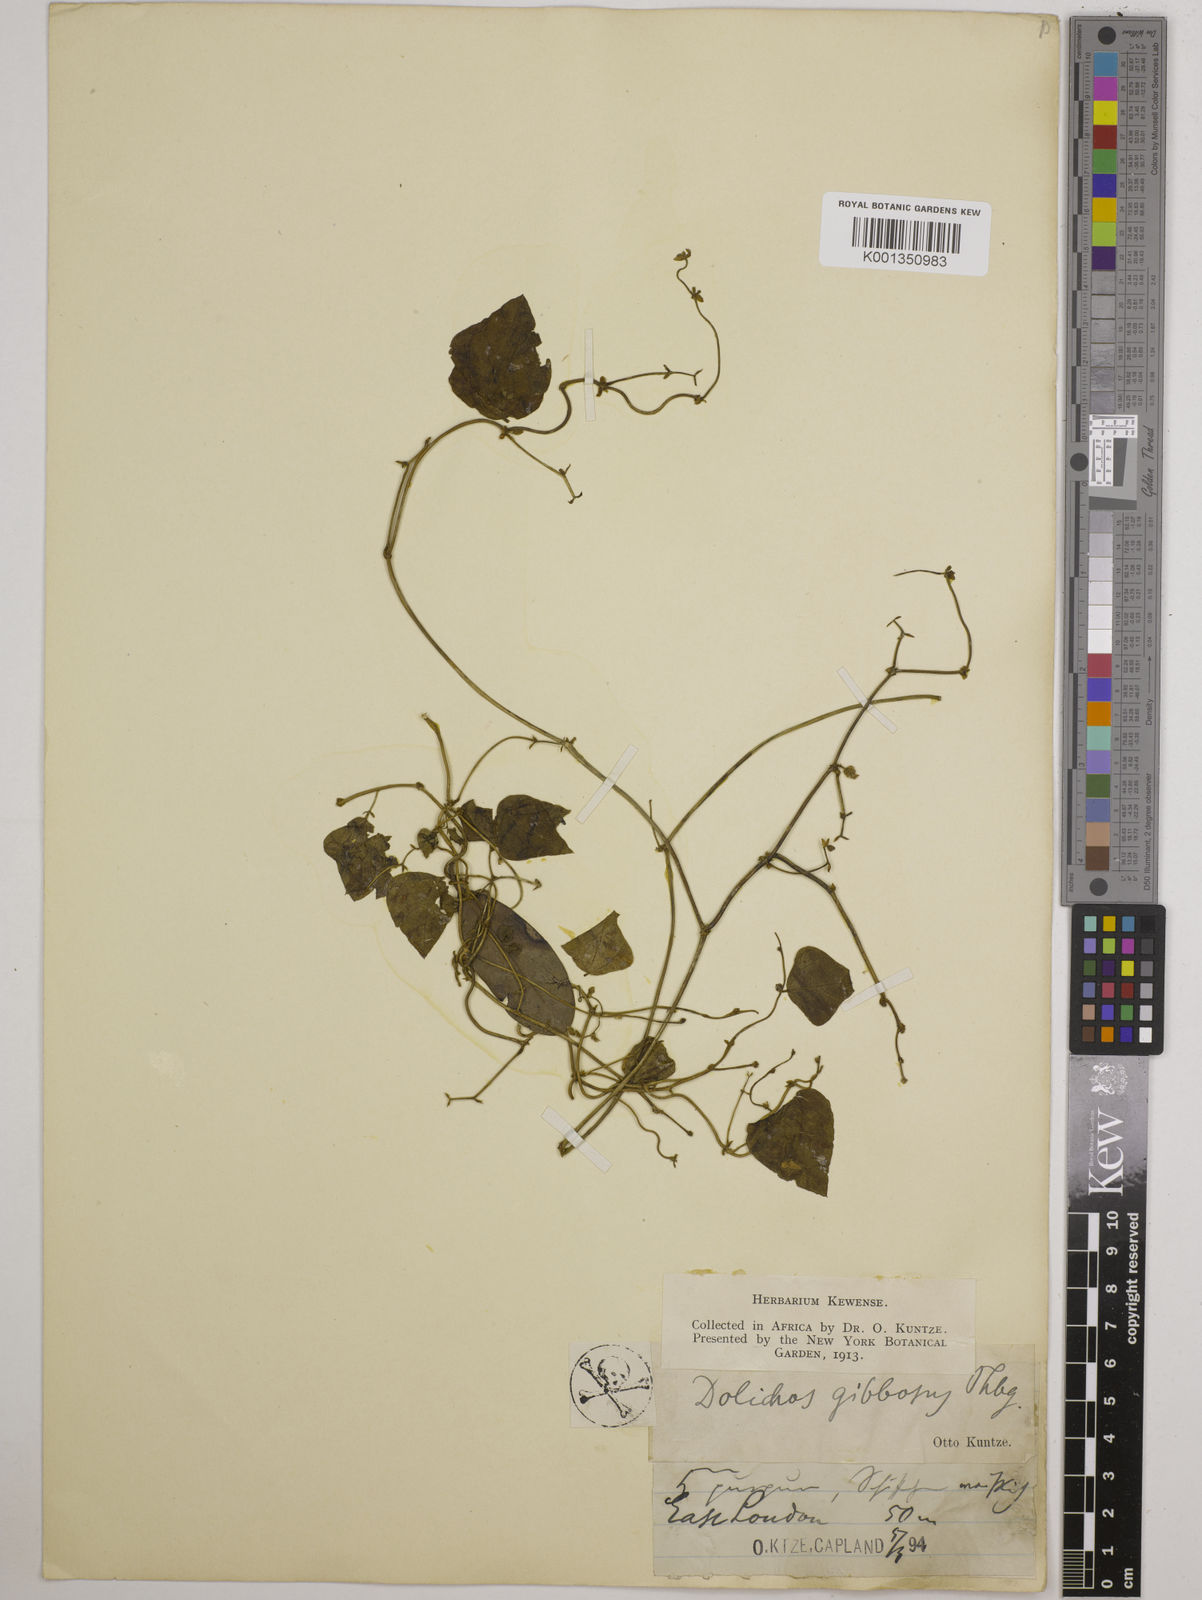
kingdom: Plantae
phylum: Tracheophyta
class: Magnoliopsida
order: Fabales
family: Fabaceae
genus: Dolichos
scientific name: Dolichos
